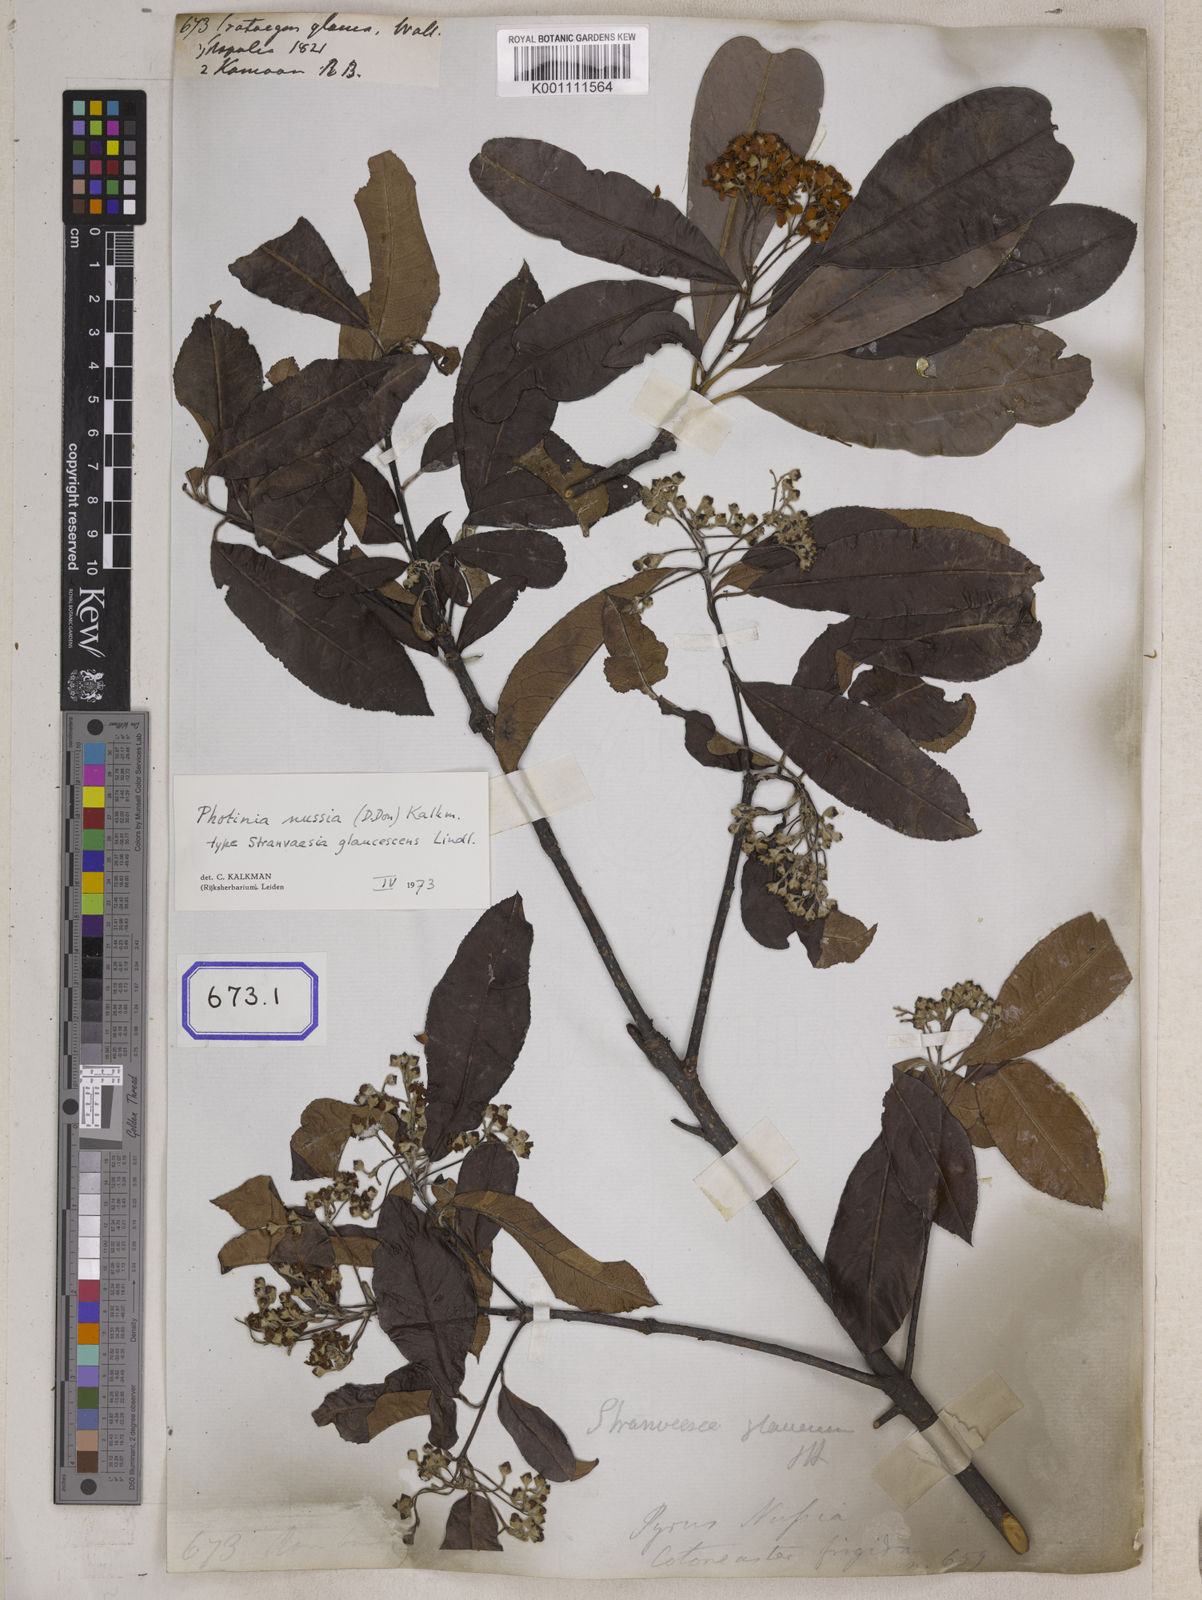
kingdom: Plantae
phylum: Tracheophyta
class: Magnoliopsida
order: Rosales
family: Rosaceae
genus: Crataegus
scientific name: Crataegus
